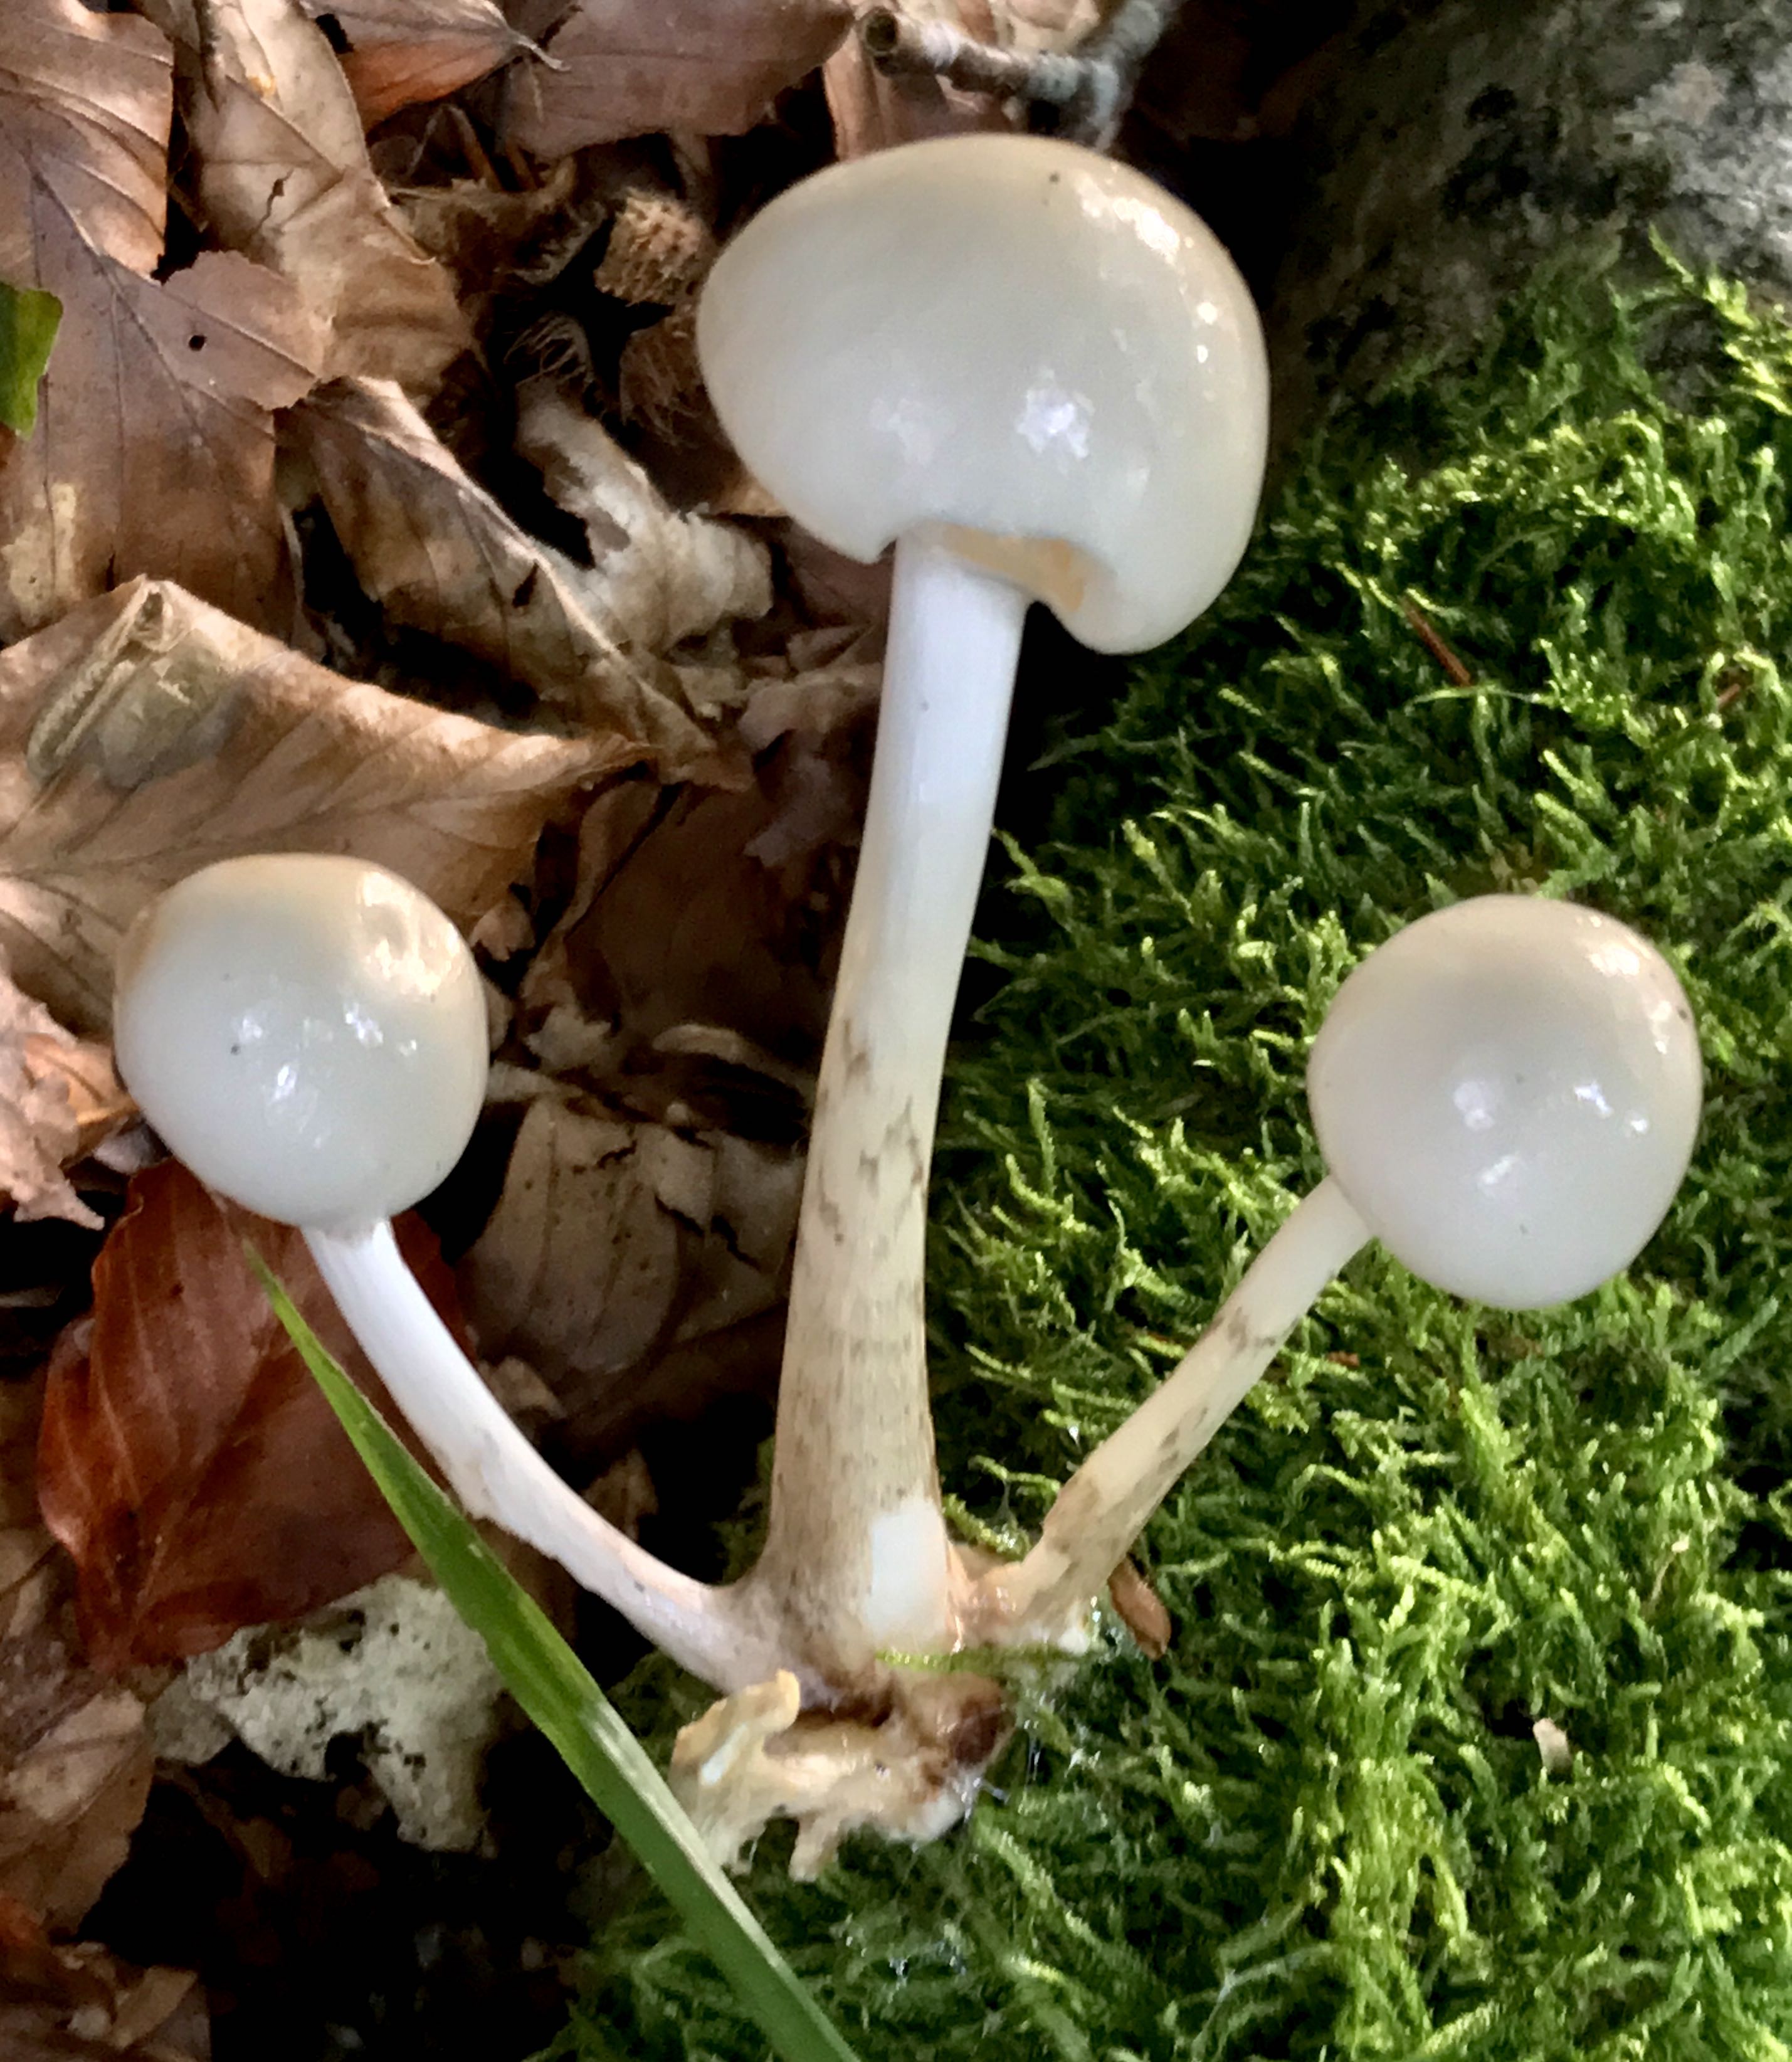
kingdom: Fungi
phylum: Basidiomycota
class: Agaricomycetes
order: Agaricales
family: Physalacriaceae
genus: Mucidula
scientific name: Mucidula mucida
